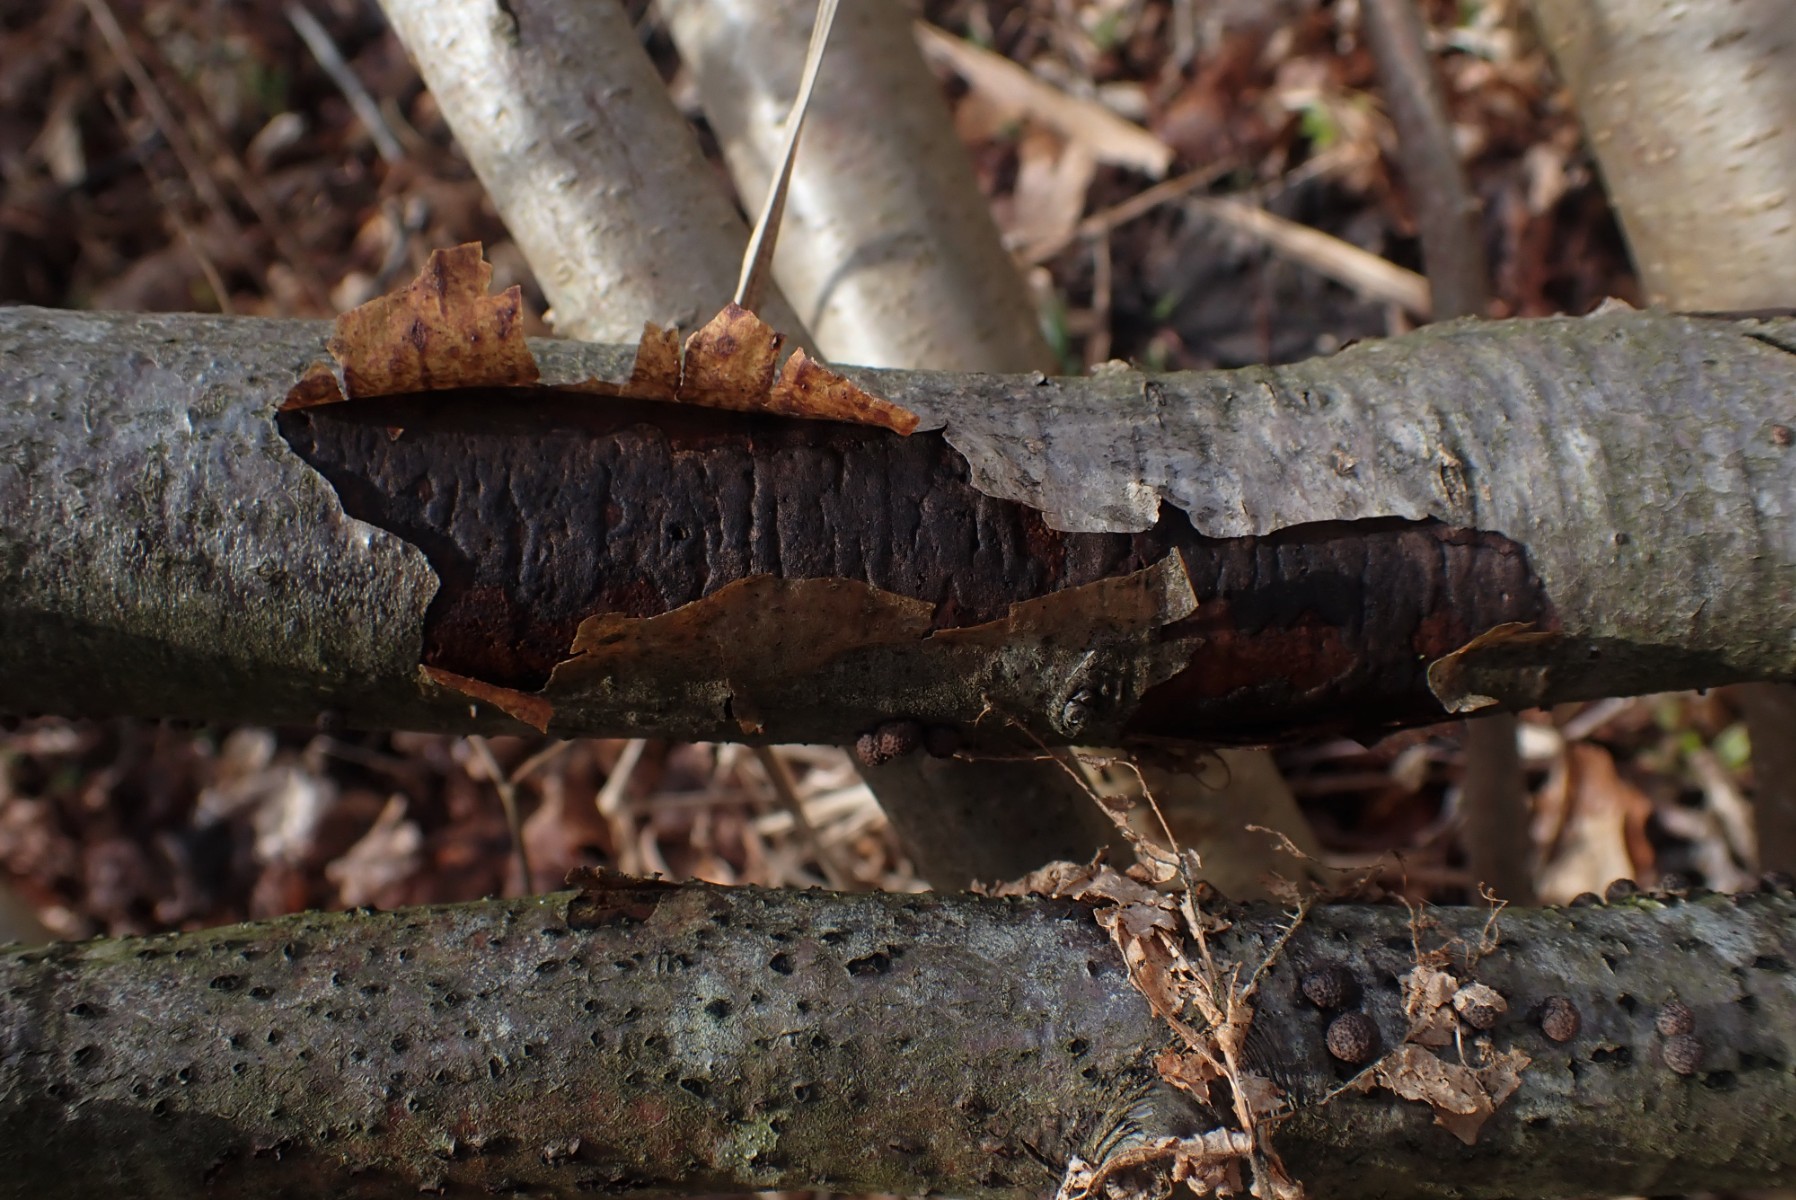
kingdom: Fungi
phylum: Ascomycota
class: Sordariomycetes
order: Xylariales
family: Diatrypaceae
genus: Diatrype
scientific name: Diatrype decorticata
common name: barksprænger-kulskorpe
